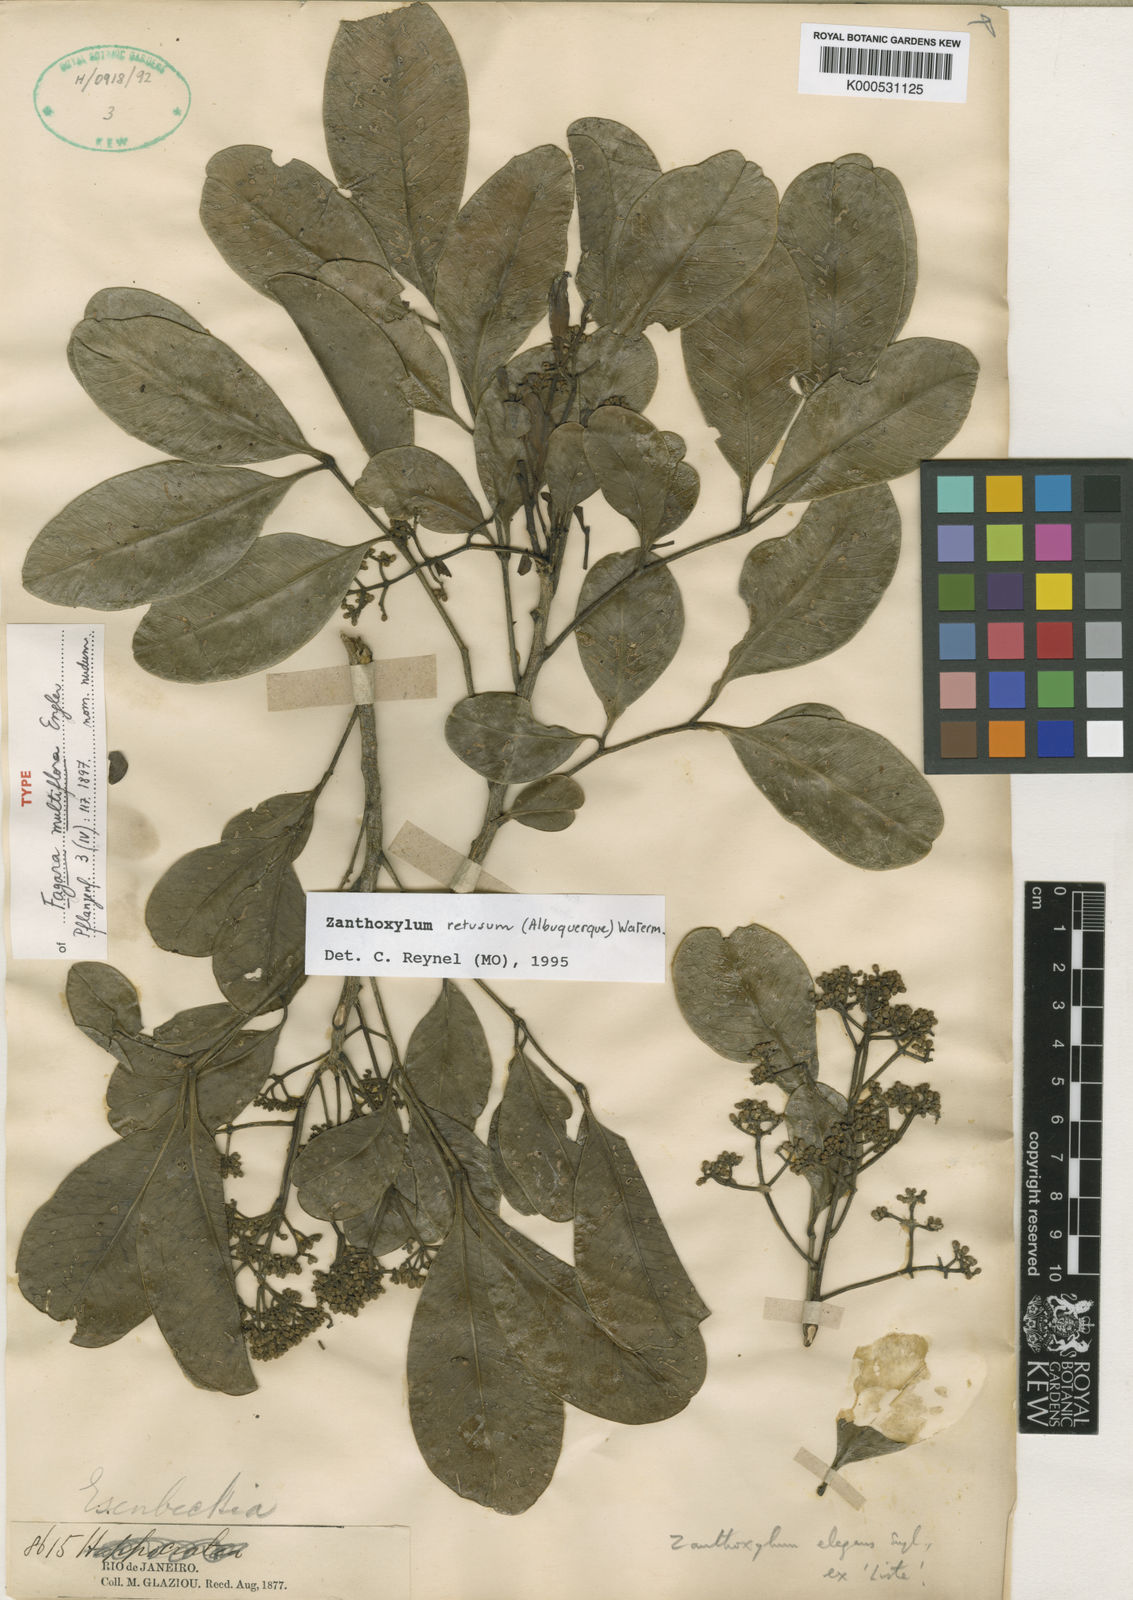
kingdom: Plantae
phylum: Tracheophyta
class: Magnoliopsida
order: Sapindales
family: Rutaceae
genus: Zanthoxylum
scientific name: Zanthoxylum retusum
